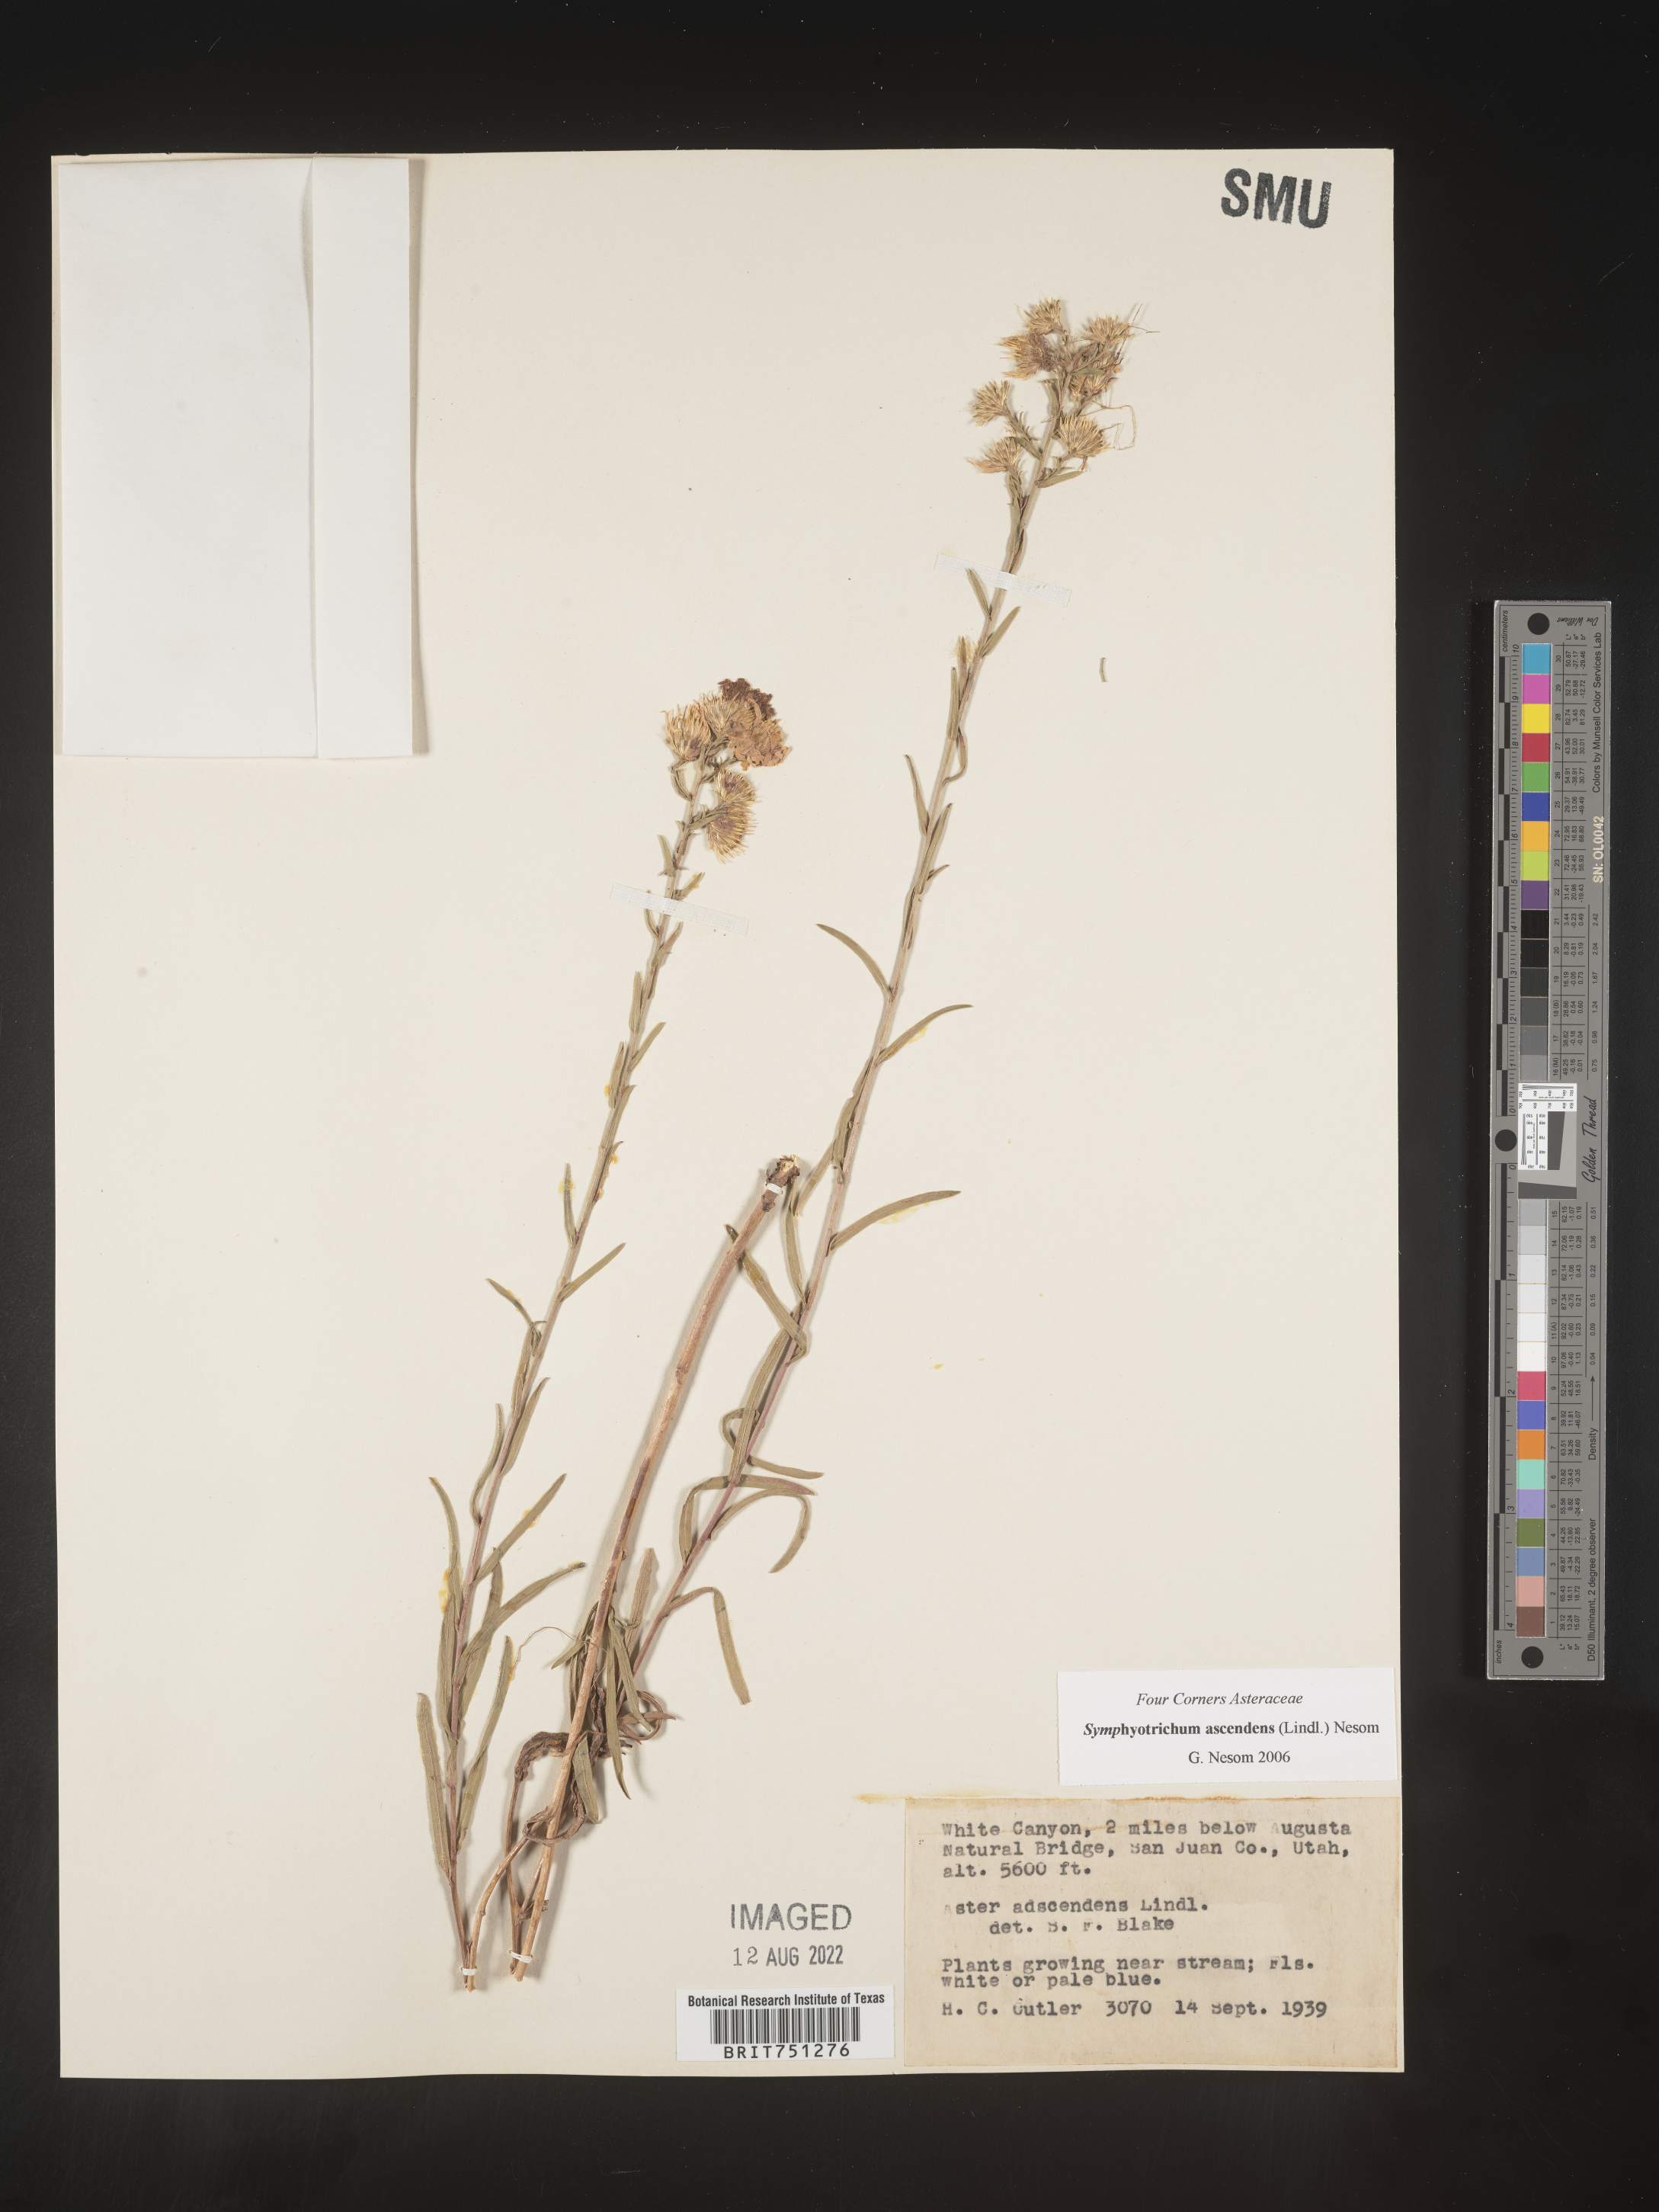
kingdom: Plantae
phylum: Tracheophyta
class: Magnoliopsida
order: Asterales
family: Asteraceae
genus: Symphyotrichum
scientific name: Symphyotrichum ascendens
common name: Intermountain aster
